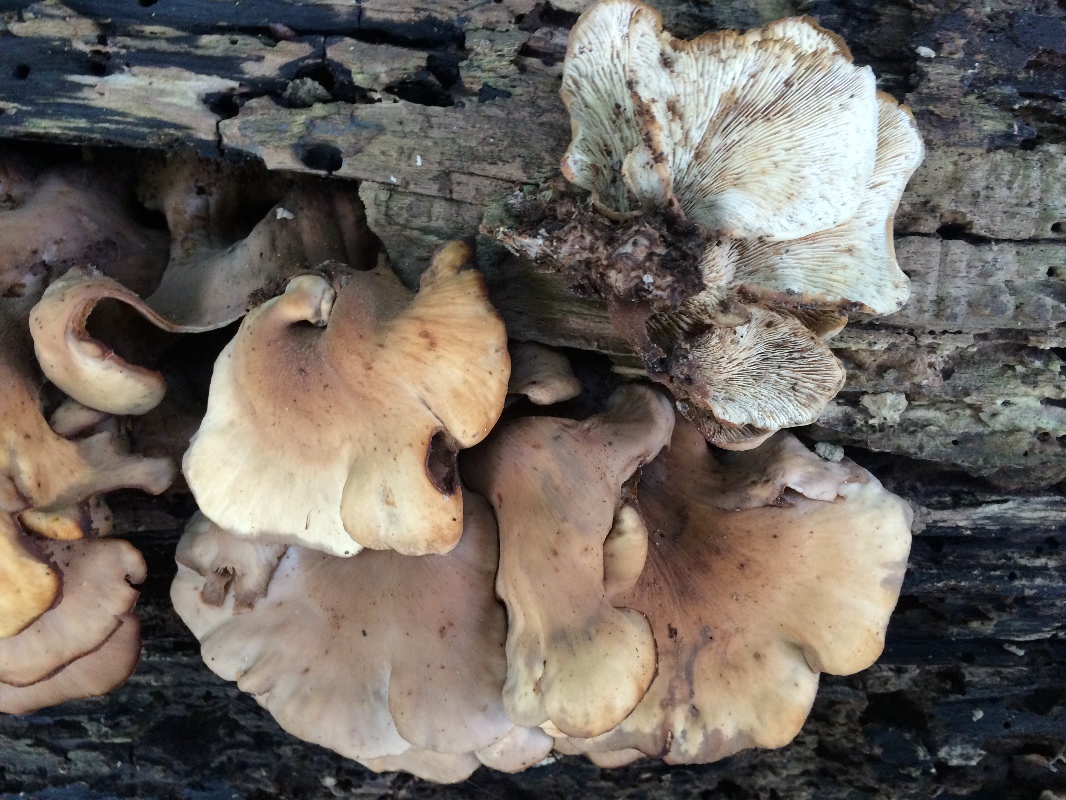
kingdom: Fungi
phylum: Basidiomycota
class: Agaricomycetes
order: Russulales
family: Auriscalpiaceae
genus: Lentinellus
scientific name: Lentinellus ursinus
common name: børstehåret savbladhat
